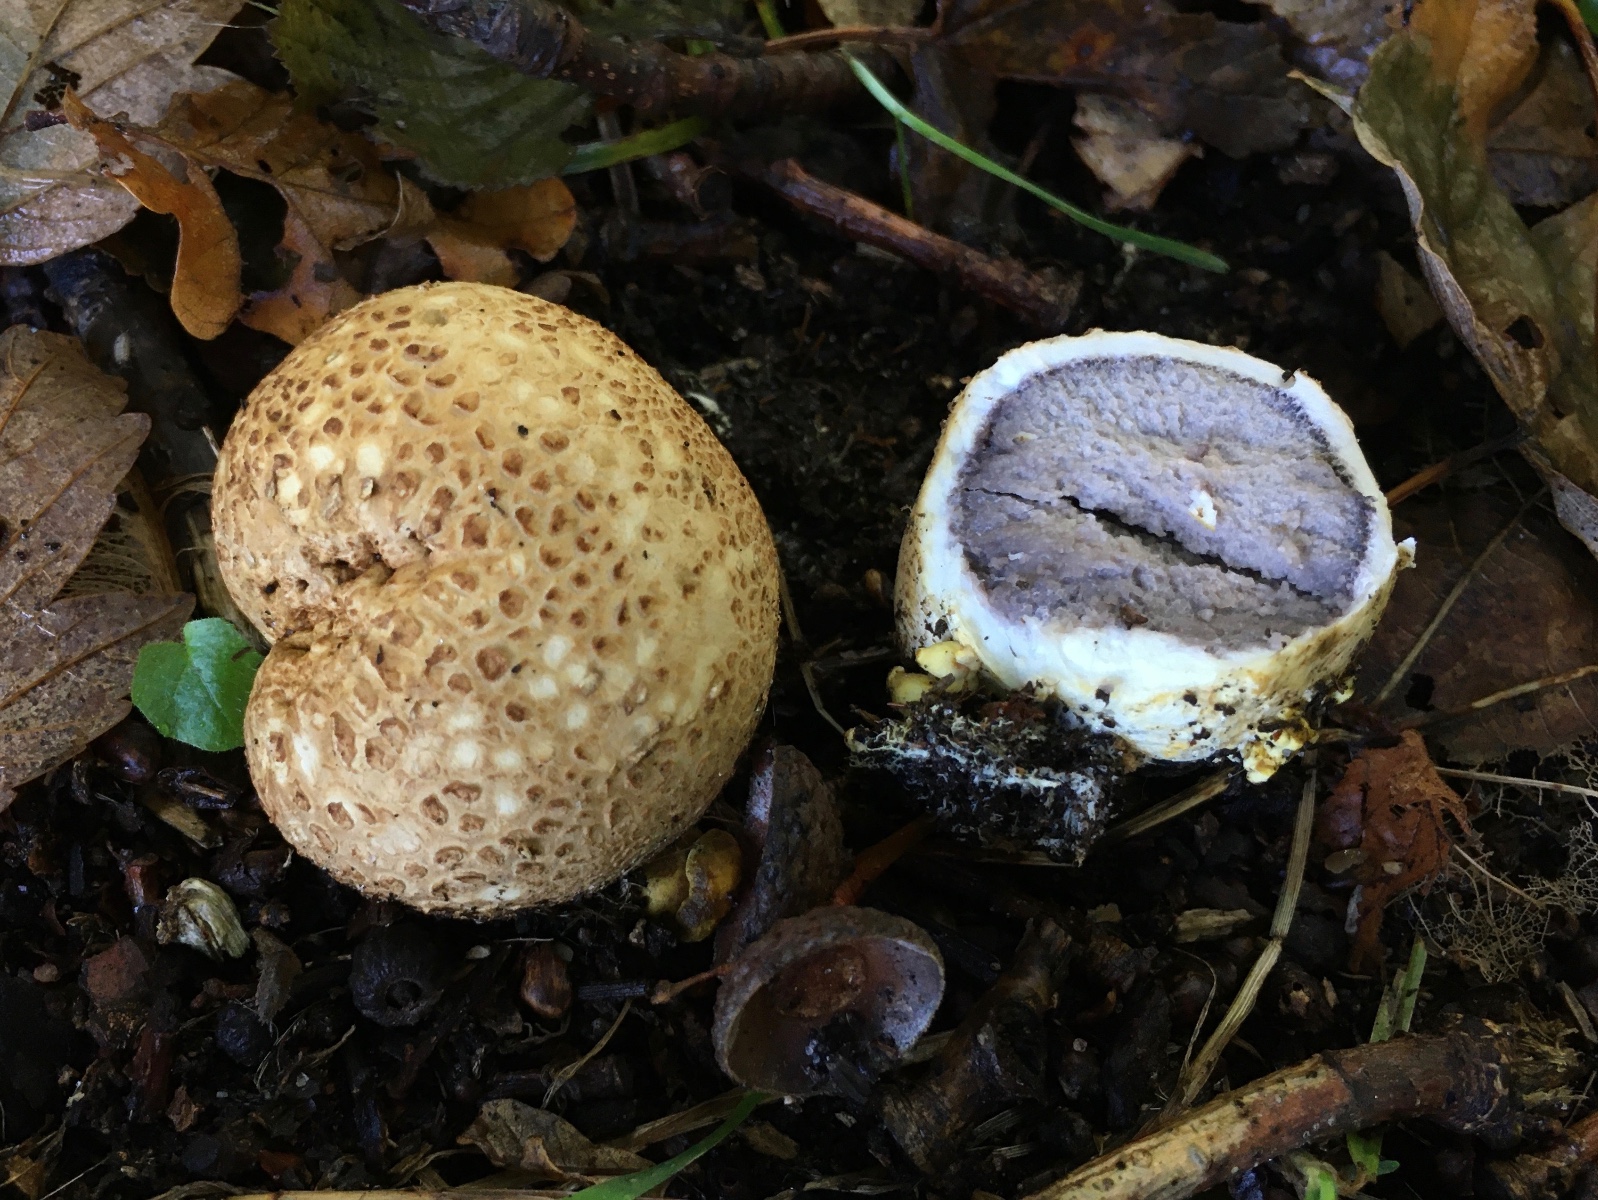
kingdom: Fungi
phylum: Basidiomycota
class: Agaricomycetes
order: Boletales
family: Sclerodermataceae
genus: Scleroderma
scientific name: Scleroderma citrinum
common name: almindelig bruskbold
